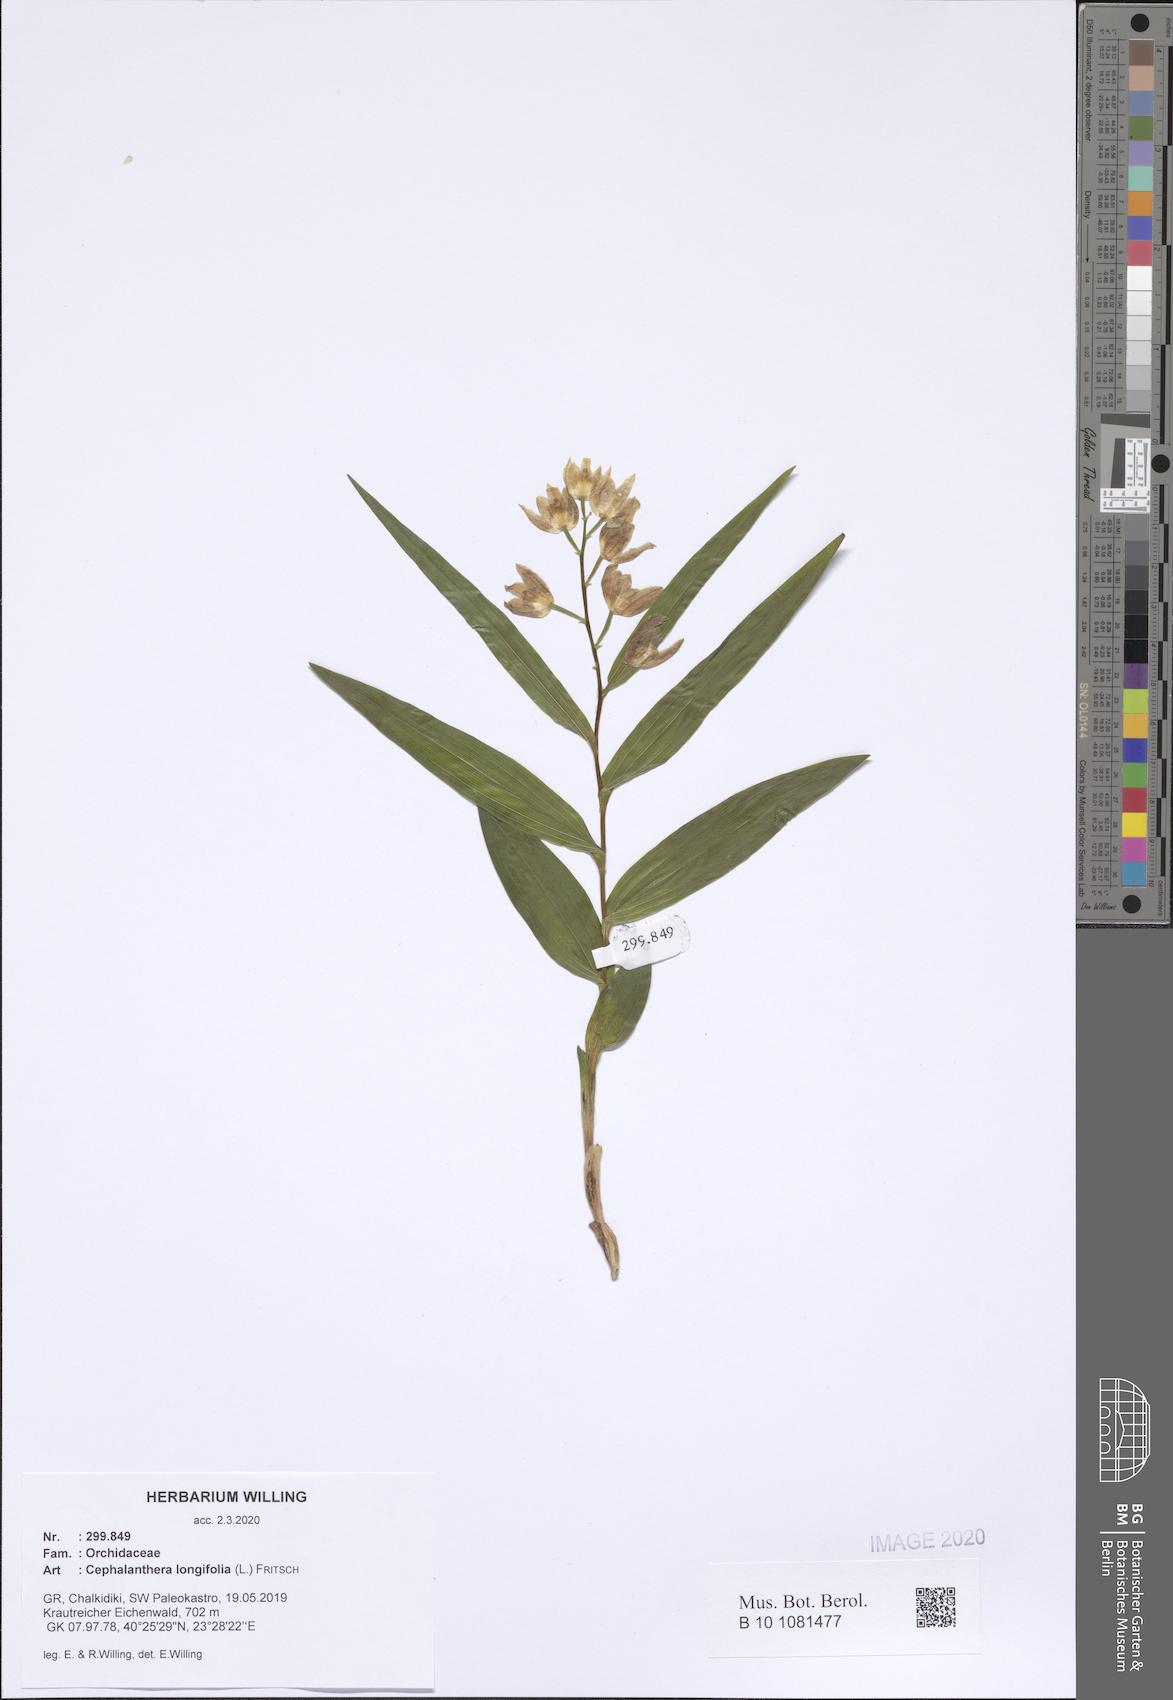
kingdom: Plantae
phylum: Tracheophyta
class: Liliopsida
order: Asparagales
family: Orchidaceae
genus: Cephalanthera
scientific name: Cephalanthera longifolia
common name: Narrow-leaved helleborine
